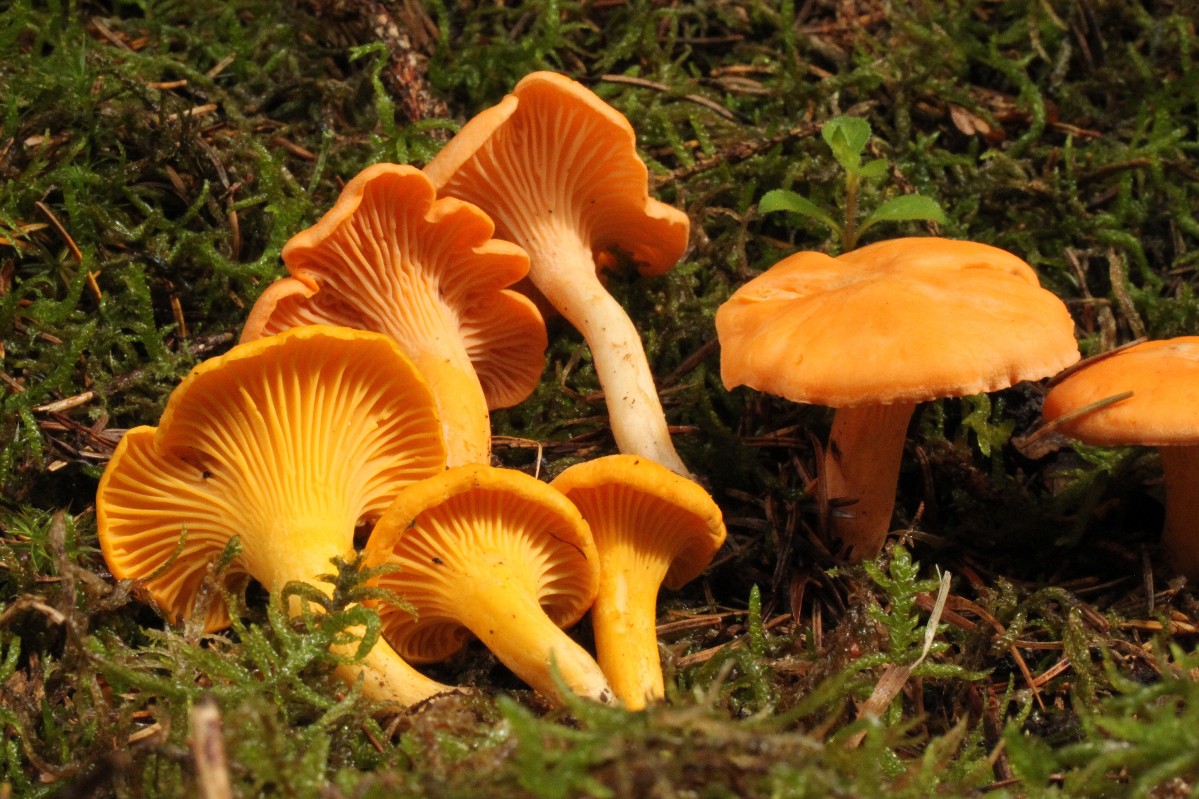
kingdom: Fungi
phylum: Basidiomycota
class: Agaricomycetes
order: Cantharellales
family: Hydnaceae
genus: Cantharellus
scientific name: Cantharellus cibarius
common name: almindelig kantarel
